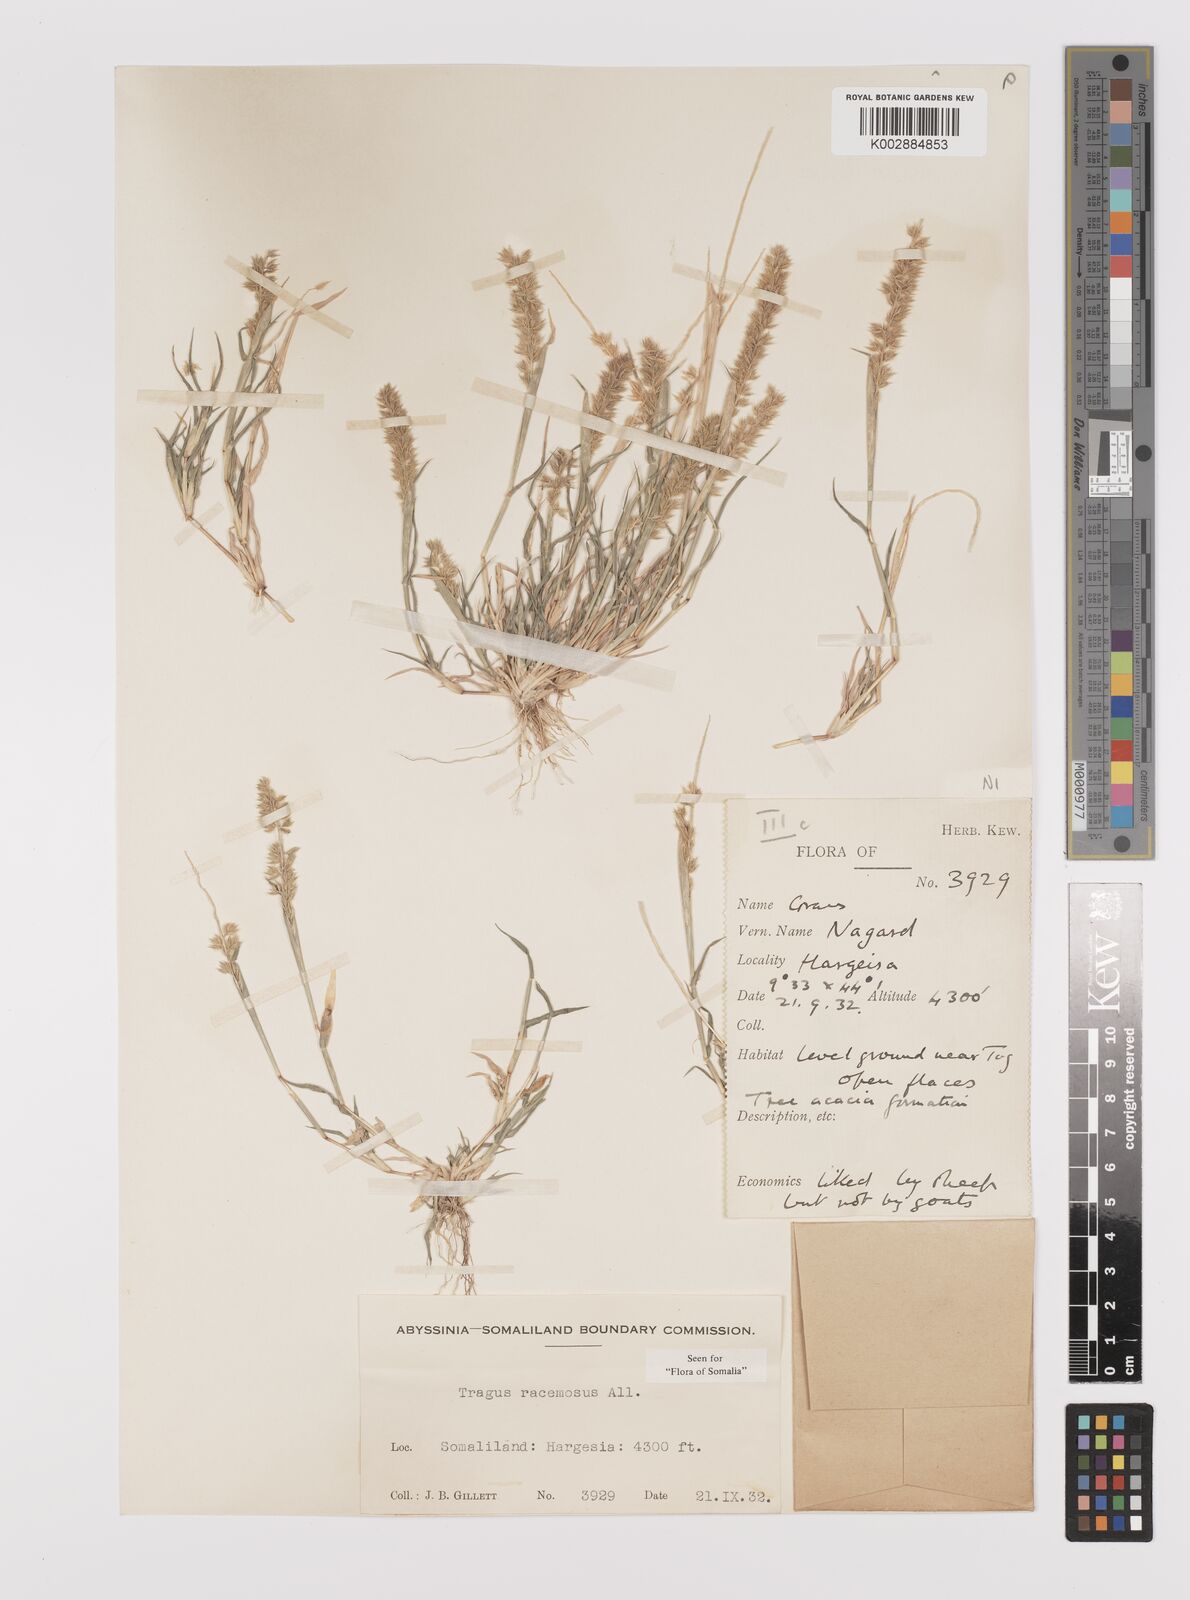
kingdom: Plantae
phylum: Tracheophyta
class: Liliopsida
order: Poales
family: Poaceae
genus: Tragus
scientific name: Tragus racemosus
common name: European bur-grass
